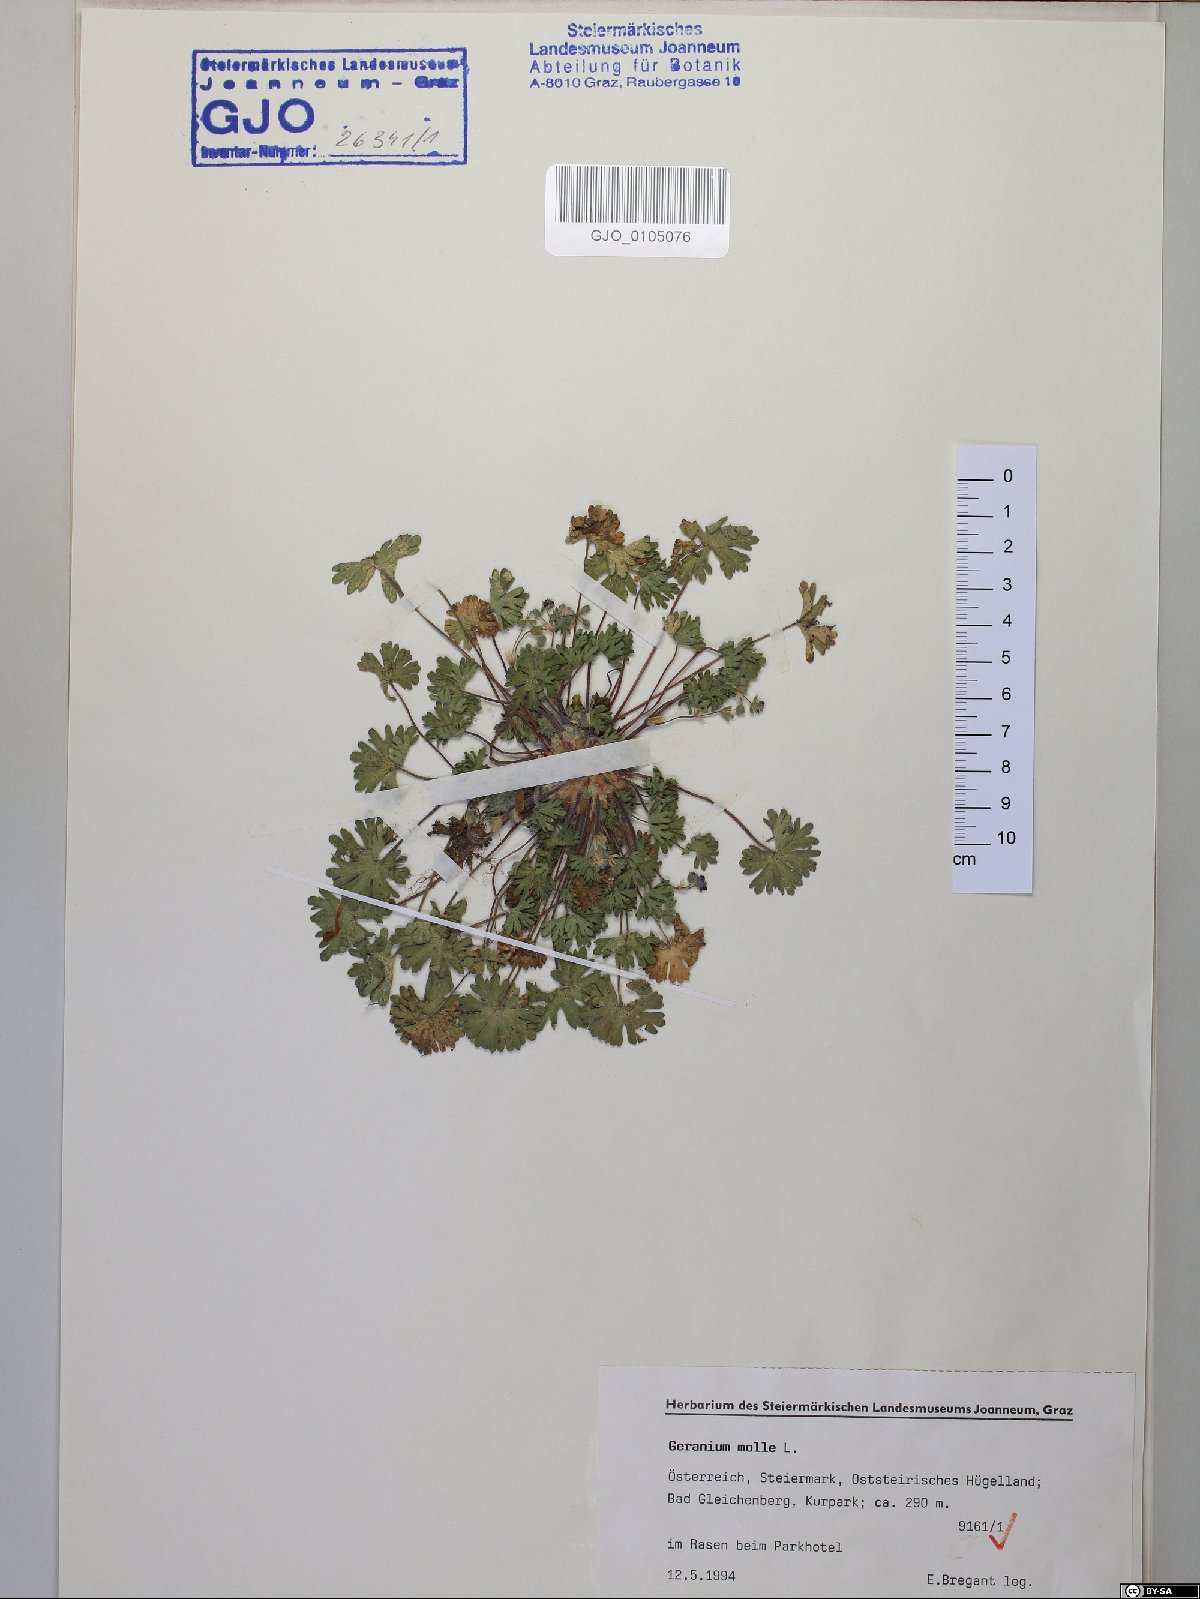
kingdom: Plantae
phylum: Tracheophyta
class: Magnoliopsida
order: Geraniales
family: Geraniaceae
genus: Geranium
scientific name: Geranium molle
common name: Dove's-foot crane's-bill
